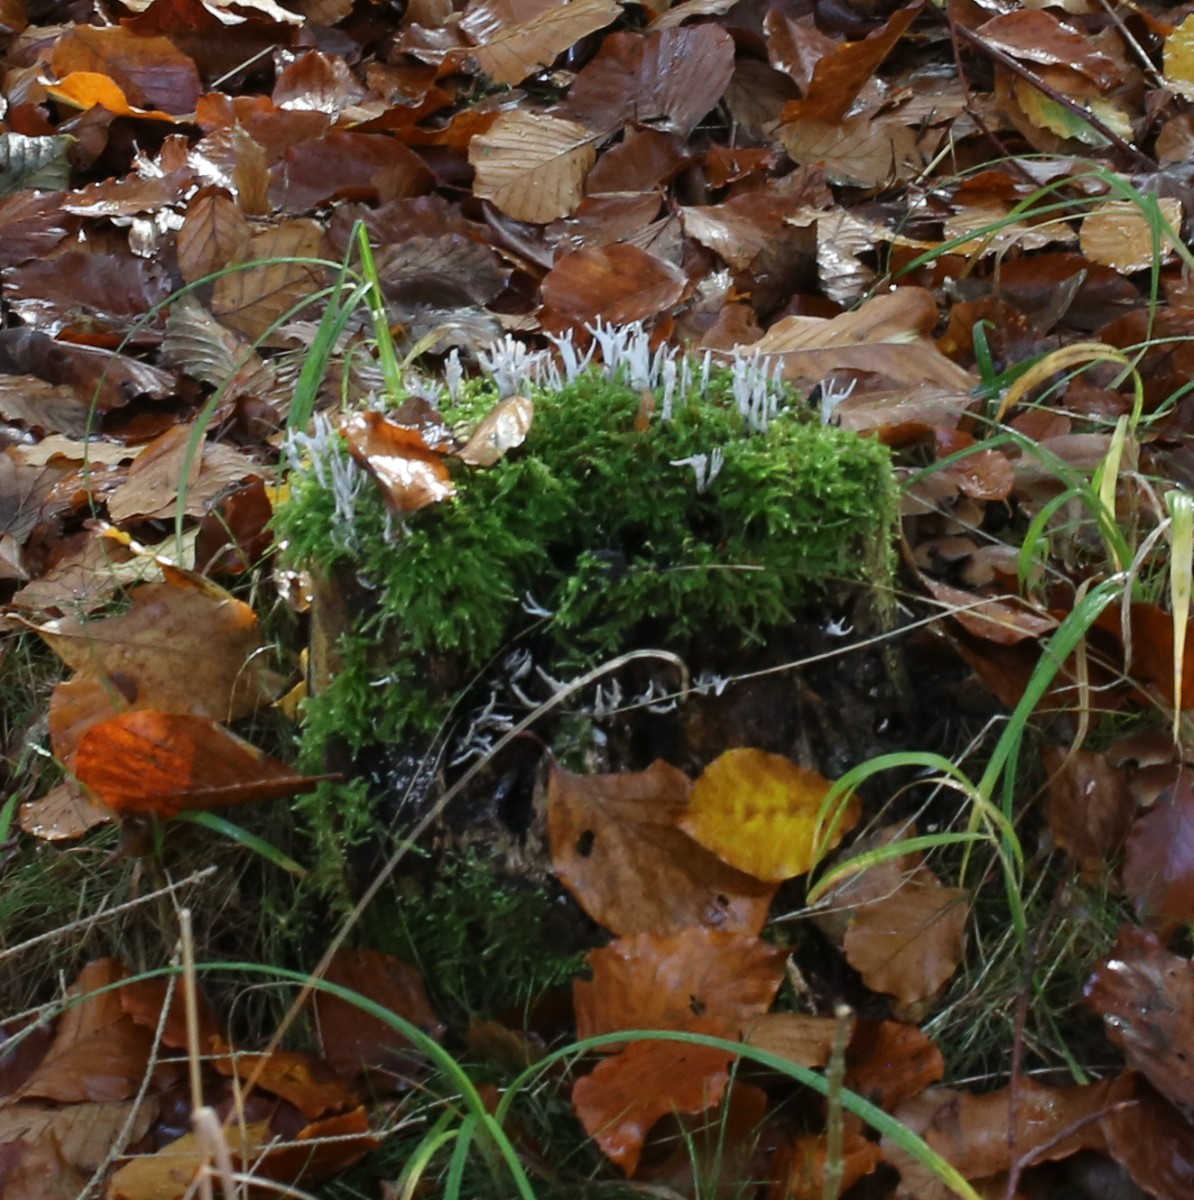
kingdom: Fungi
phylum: Ascomycota
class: Sordariomycetes
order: Xylariales
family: Xylariaceae
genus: Xylaria
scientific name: Xylaria hypoxylon
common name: grenet stødsvamp
